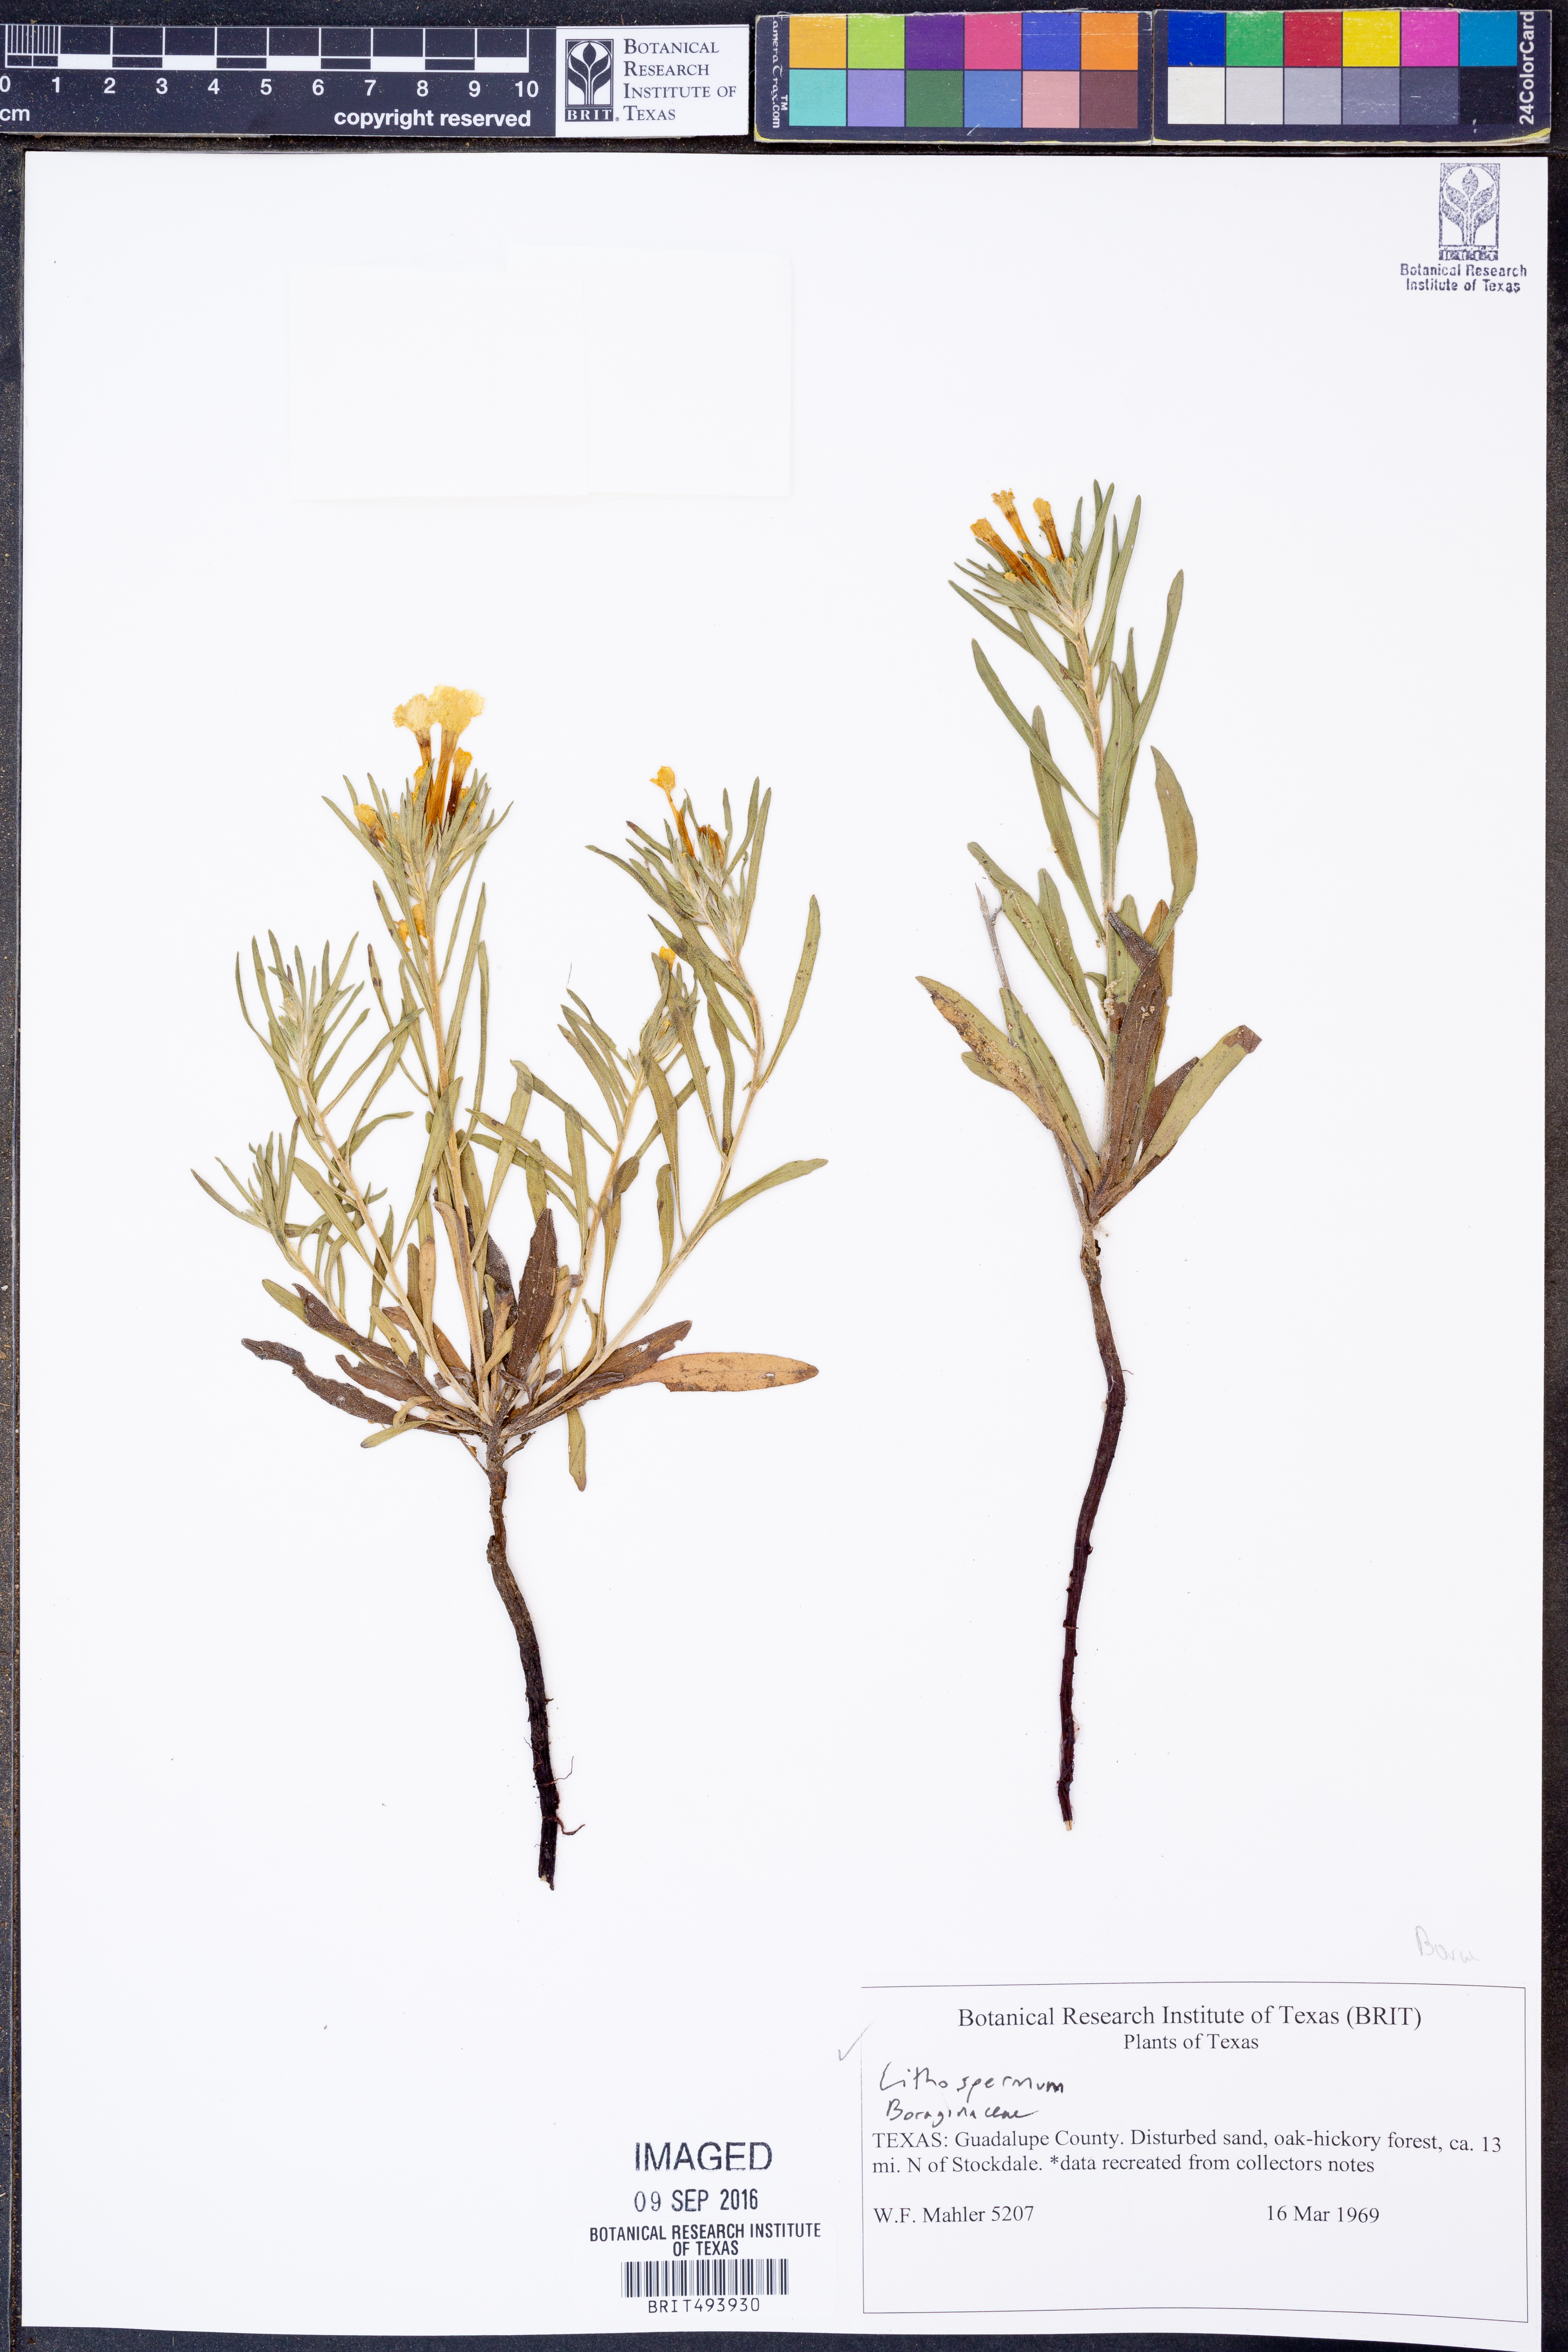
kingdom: Plantae
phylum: Tracheophyta
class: Magnoliopsida
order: Boraginales
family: Boraginaceae
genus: Lithospermum
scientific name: Lithospermum
